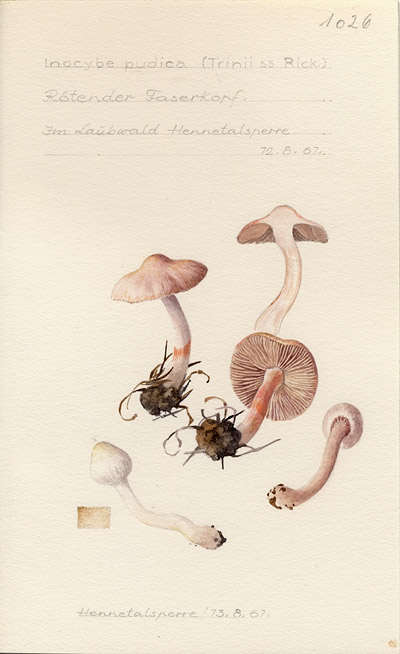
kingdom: Fungi
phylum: Basidiomycota
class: Agaricomycetes
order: Agaricales
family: Inocybaceae
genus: Inocybe
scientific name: Inocybe whitei
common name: Blushing fibrecap
